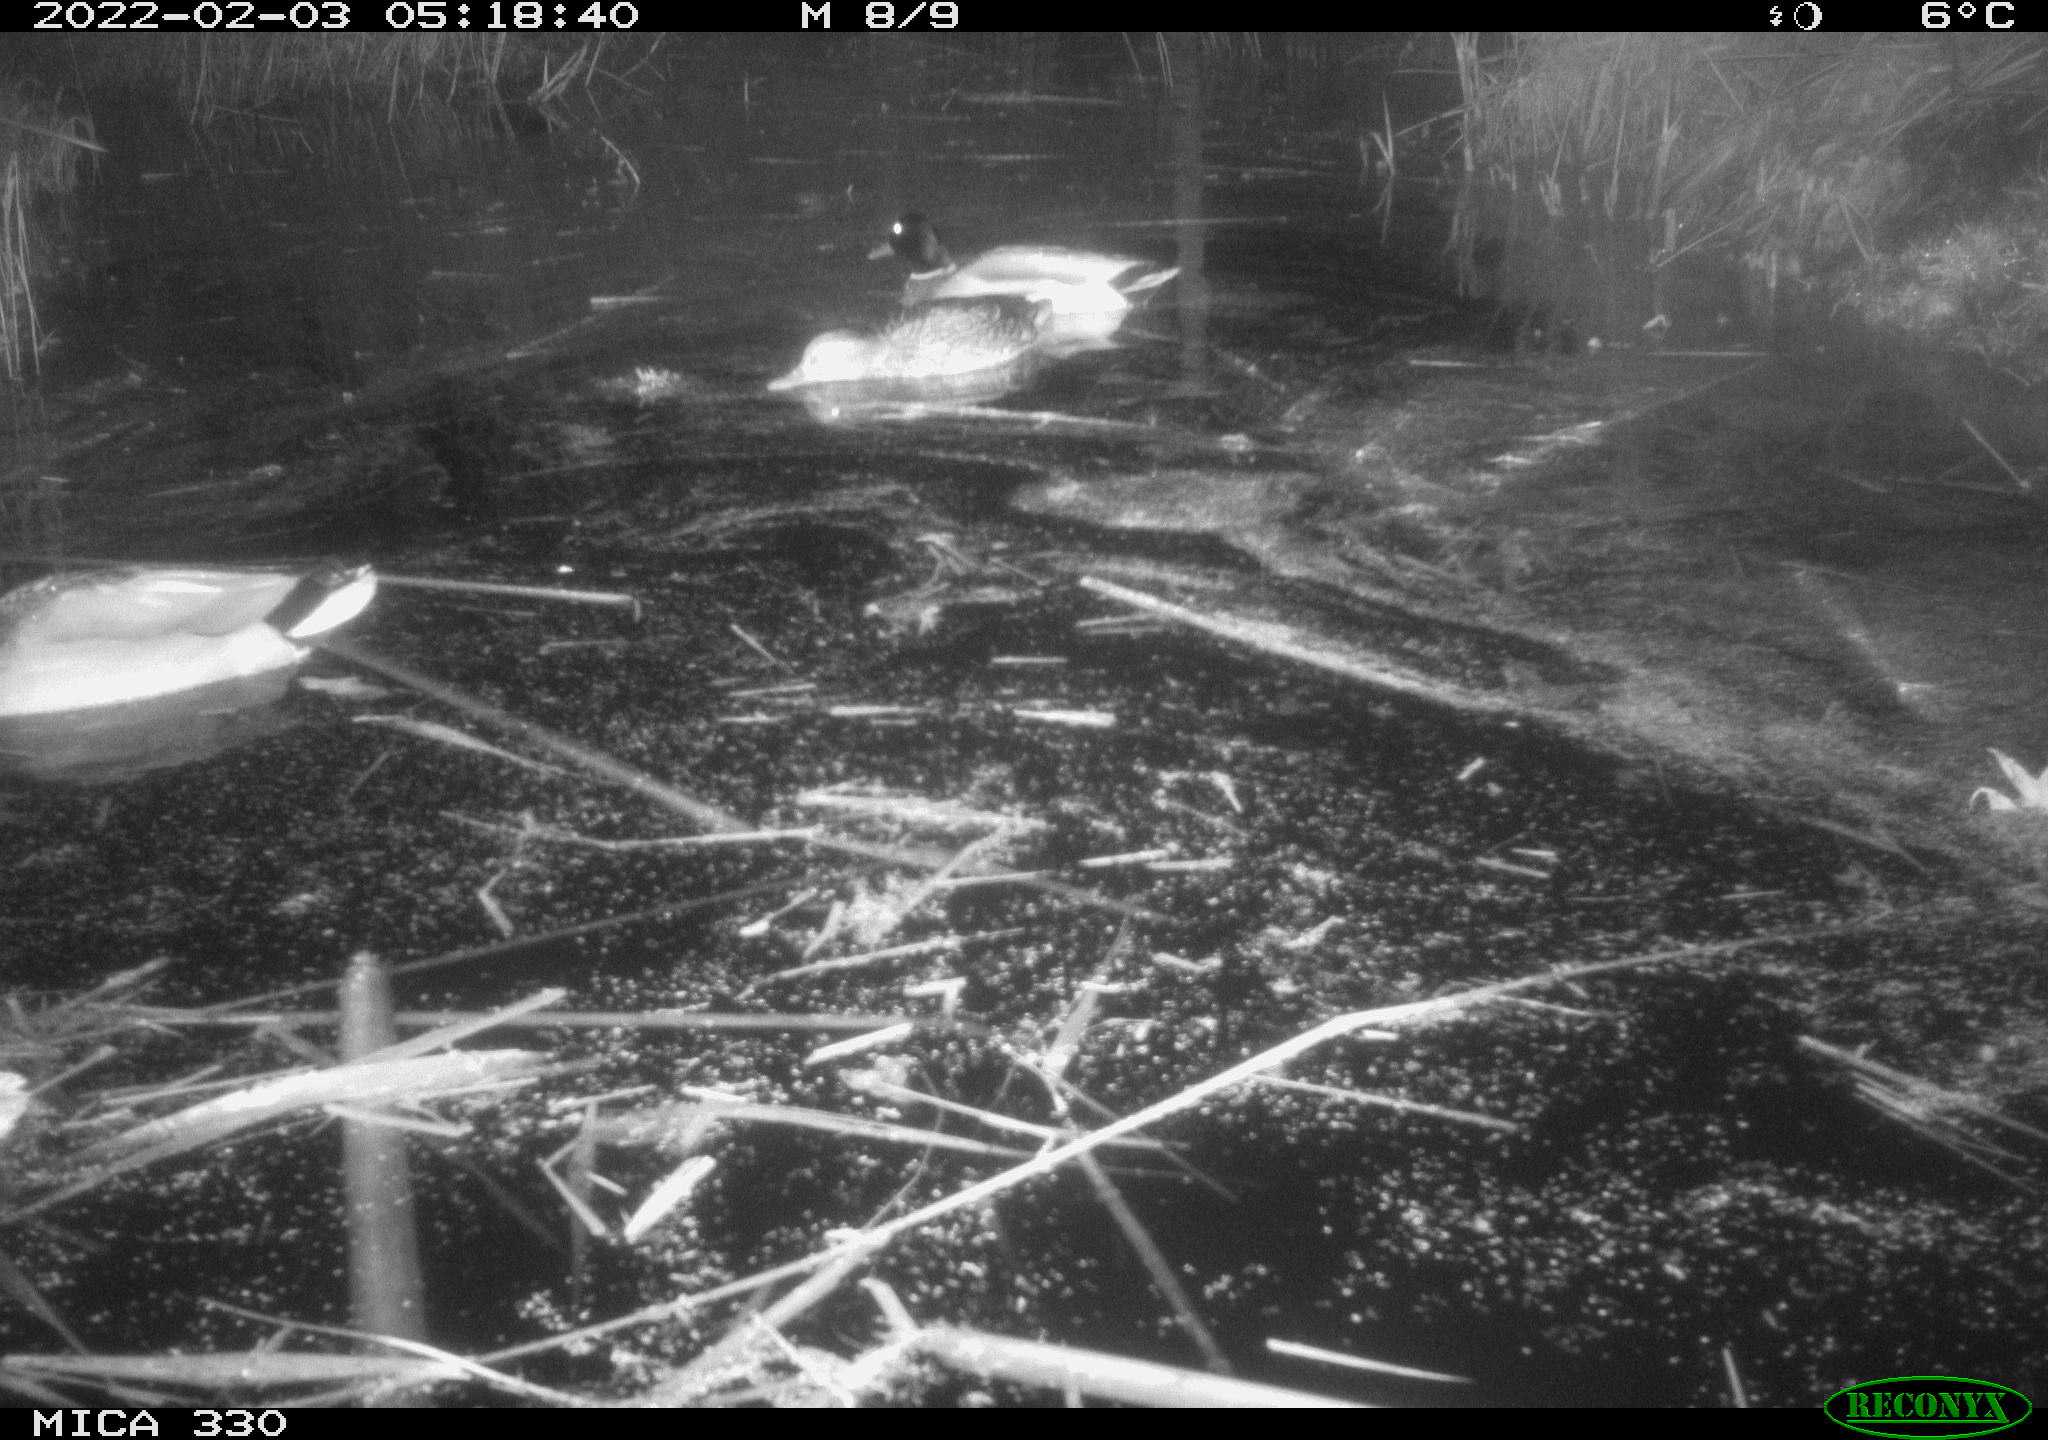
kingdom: Animalia
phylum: Chordata
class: Aves
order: Anseriformes
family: Anatidae
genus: Anas
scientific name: Anas platyrhynchos
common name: Mallard
